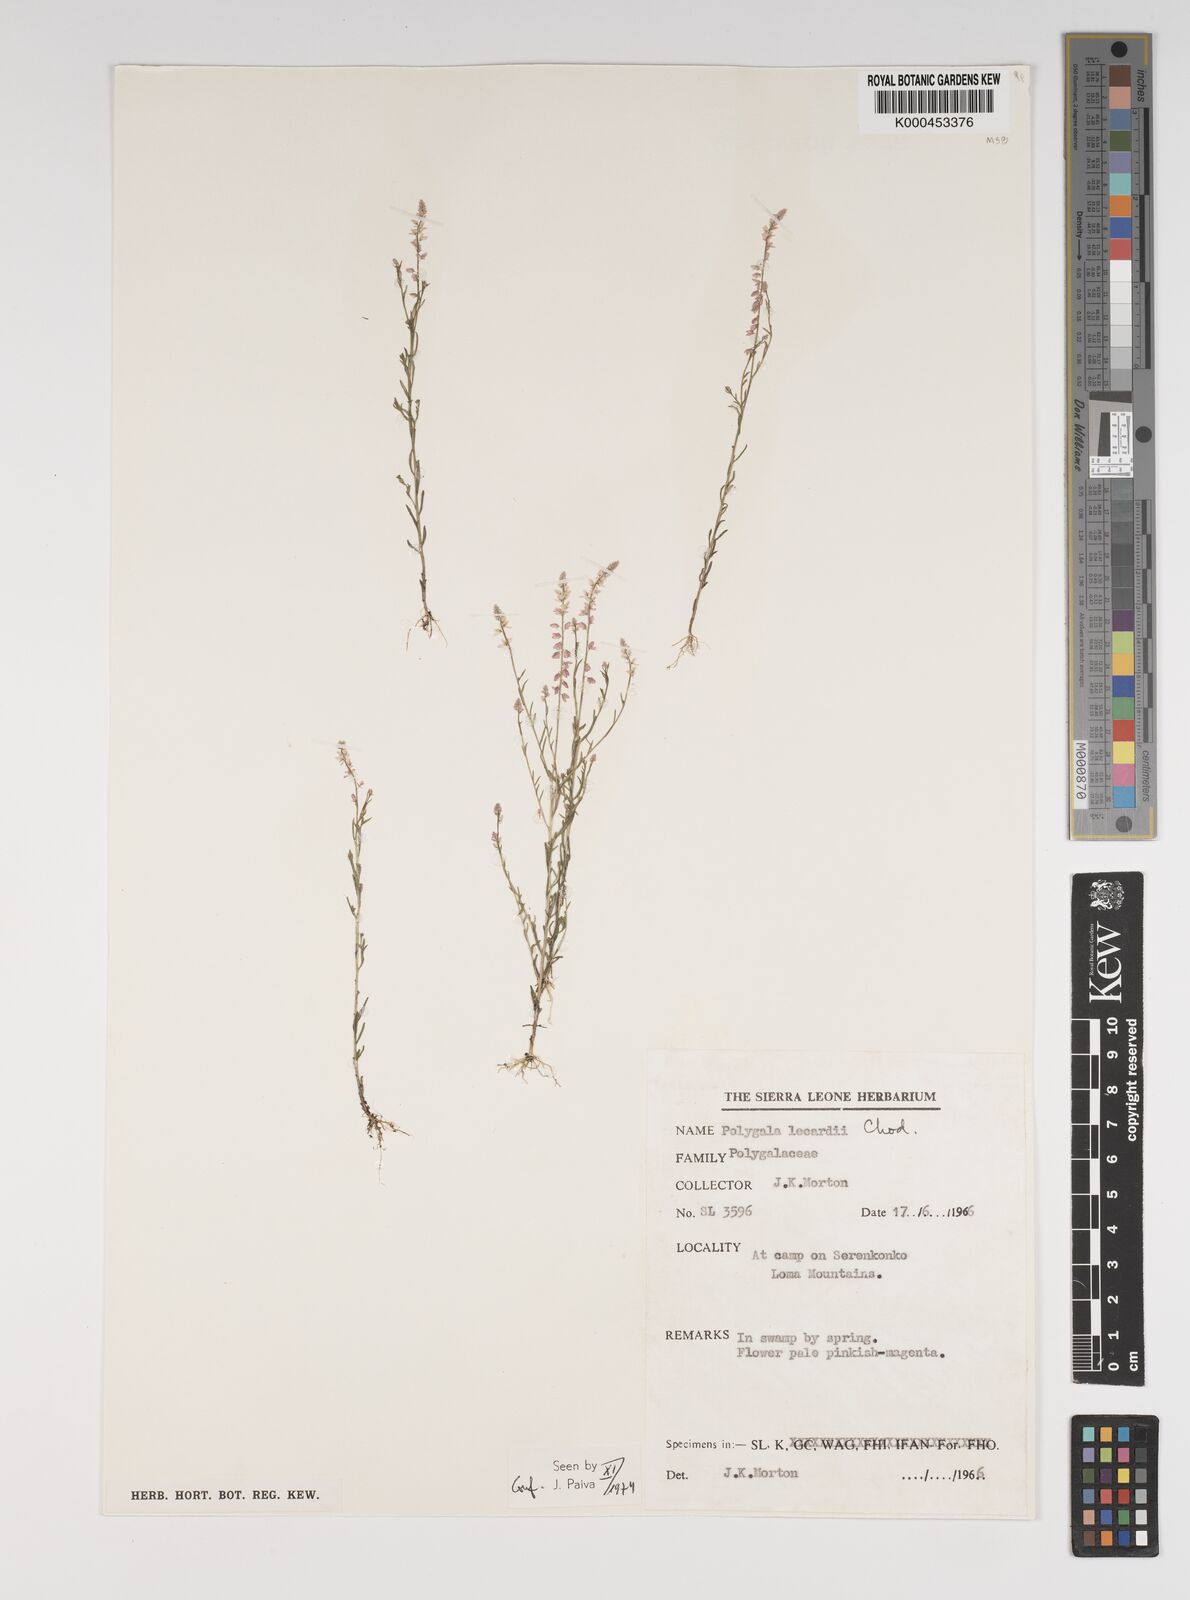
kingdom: Plantae
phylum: Tracheophyta
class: Magnoliopsida
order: Fabales
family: Polygalaceae
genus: Polygala
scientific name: Polygala lecardii
